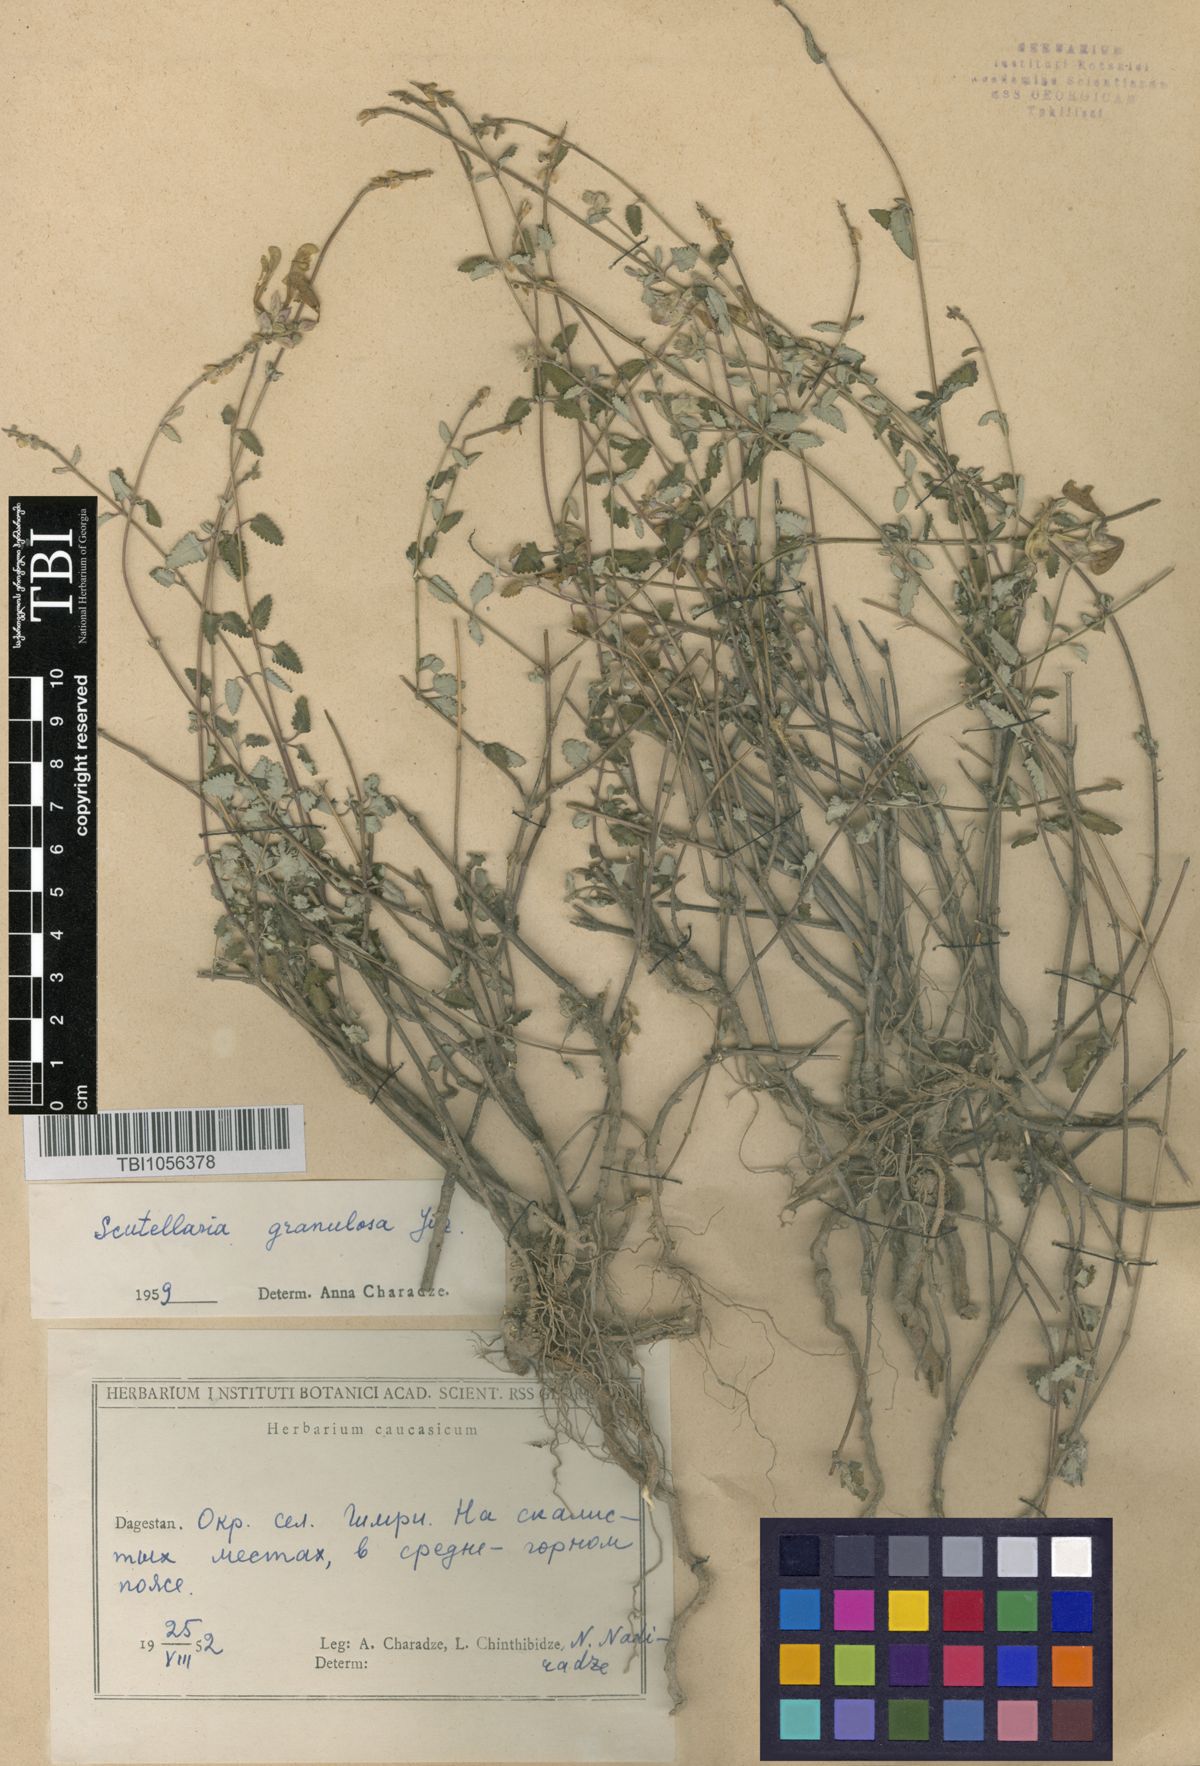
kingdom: Plantae
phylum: Tracheophyta
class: Magnoliopsida
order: Lamiales
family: Lamiaceae
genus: Scutellaria
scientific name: Scutellaria granulosa
